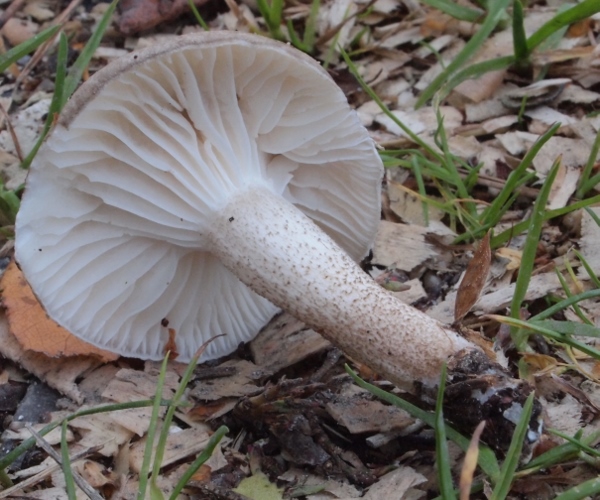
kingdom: Fungi
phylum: Basidiomycota
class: Agaricomycetes
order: Agaricales
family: Hygrophoraceae
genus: Hygrophorus
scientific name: Hygrophorus pustulatus
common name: mørkprikket sneglehat
